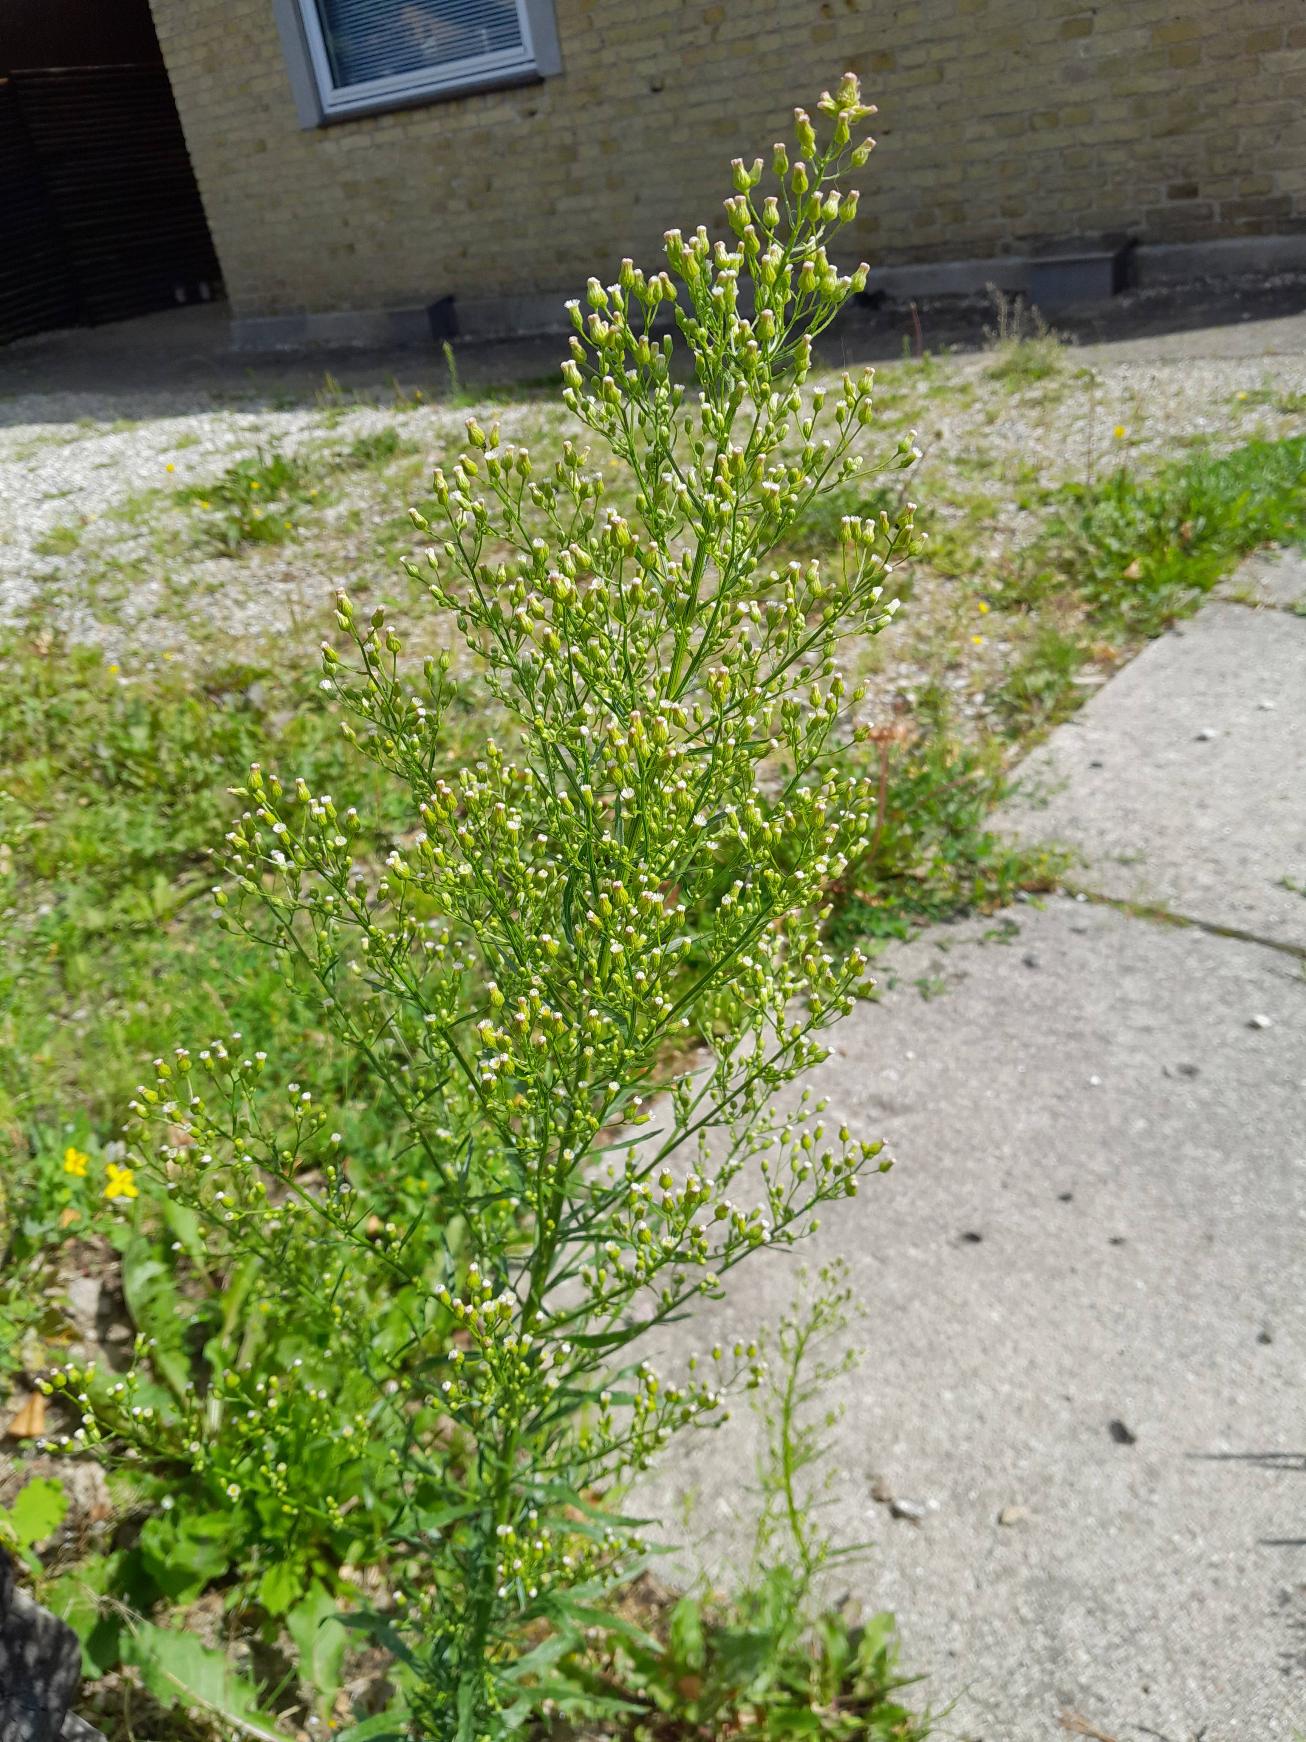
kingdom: Plantae
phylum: Tracheophyta
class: Magnoliopsida
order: Asterales
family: Asteraceae
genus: Erigeron
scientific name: Erigeron canadensis
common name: Kanadisk bakkestjerne
